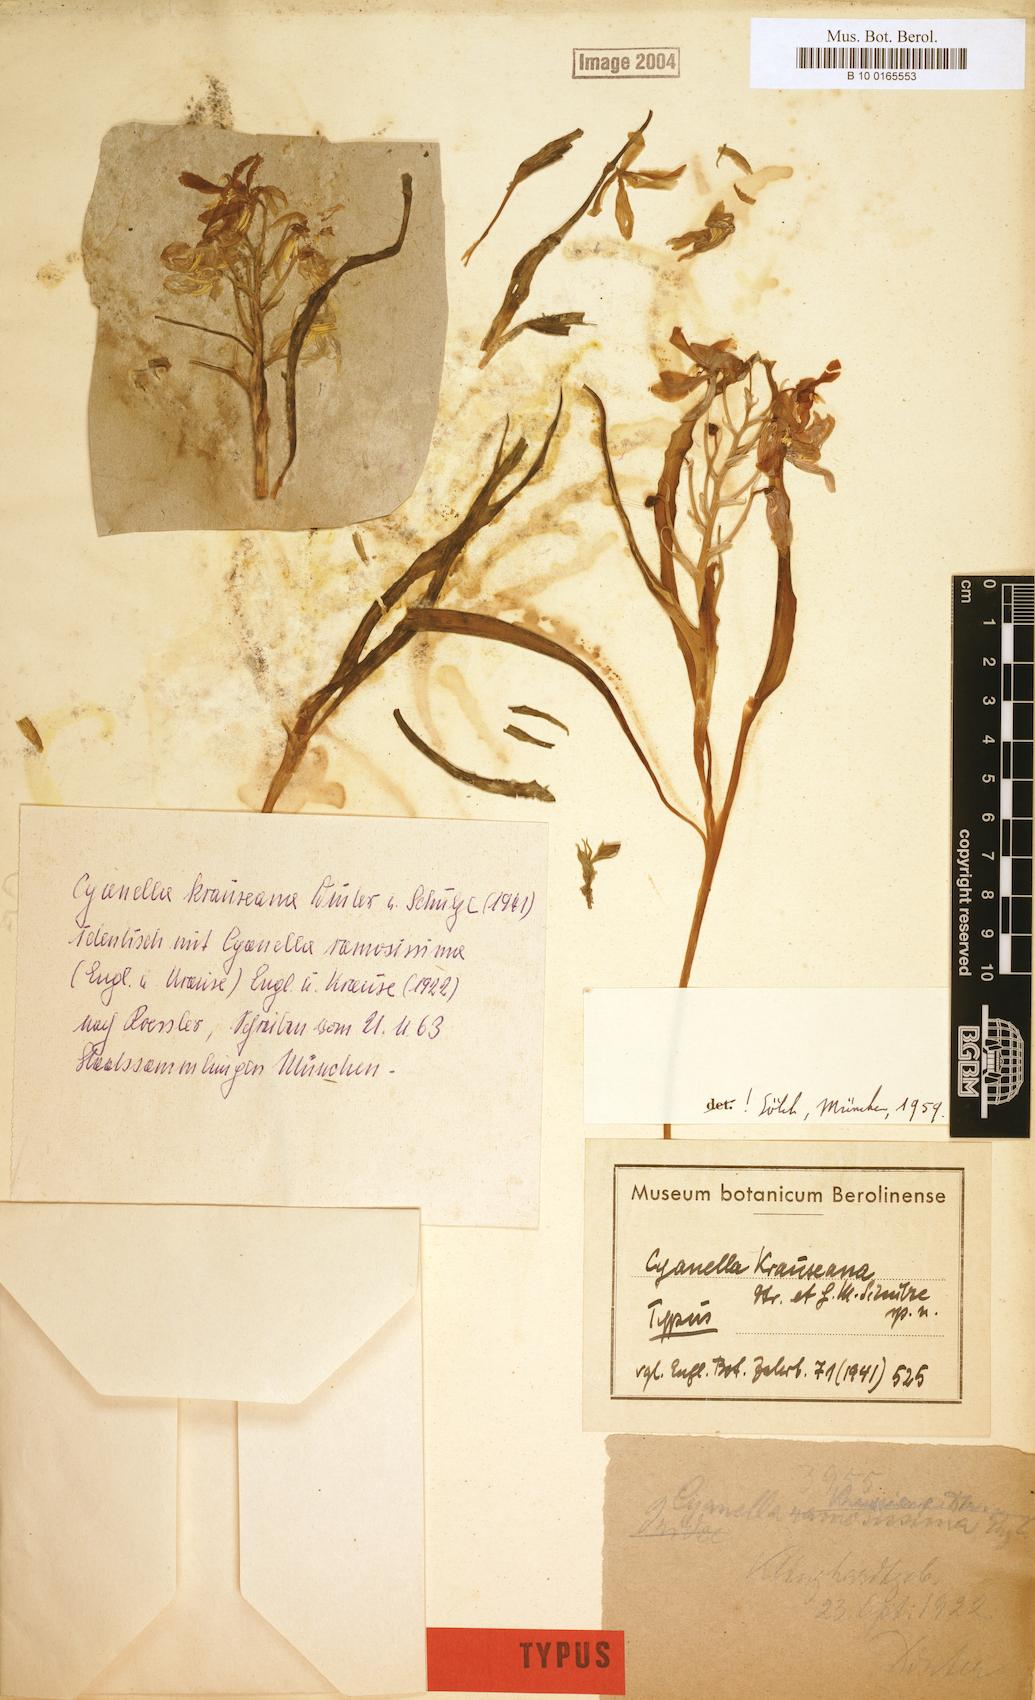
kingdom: Plantae
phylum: Tracheophyta
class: Liliopsida
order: Asparagales
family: Tecophilaeaceae
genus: Cyanella
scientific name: Cyanella ramosissima
